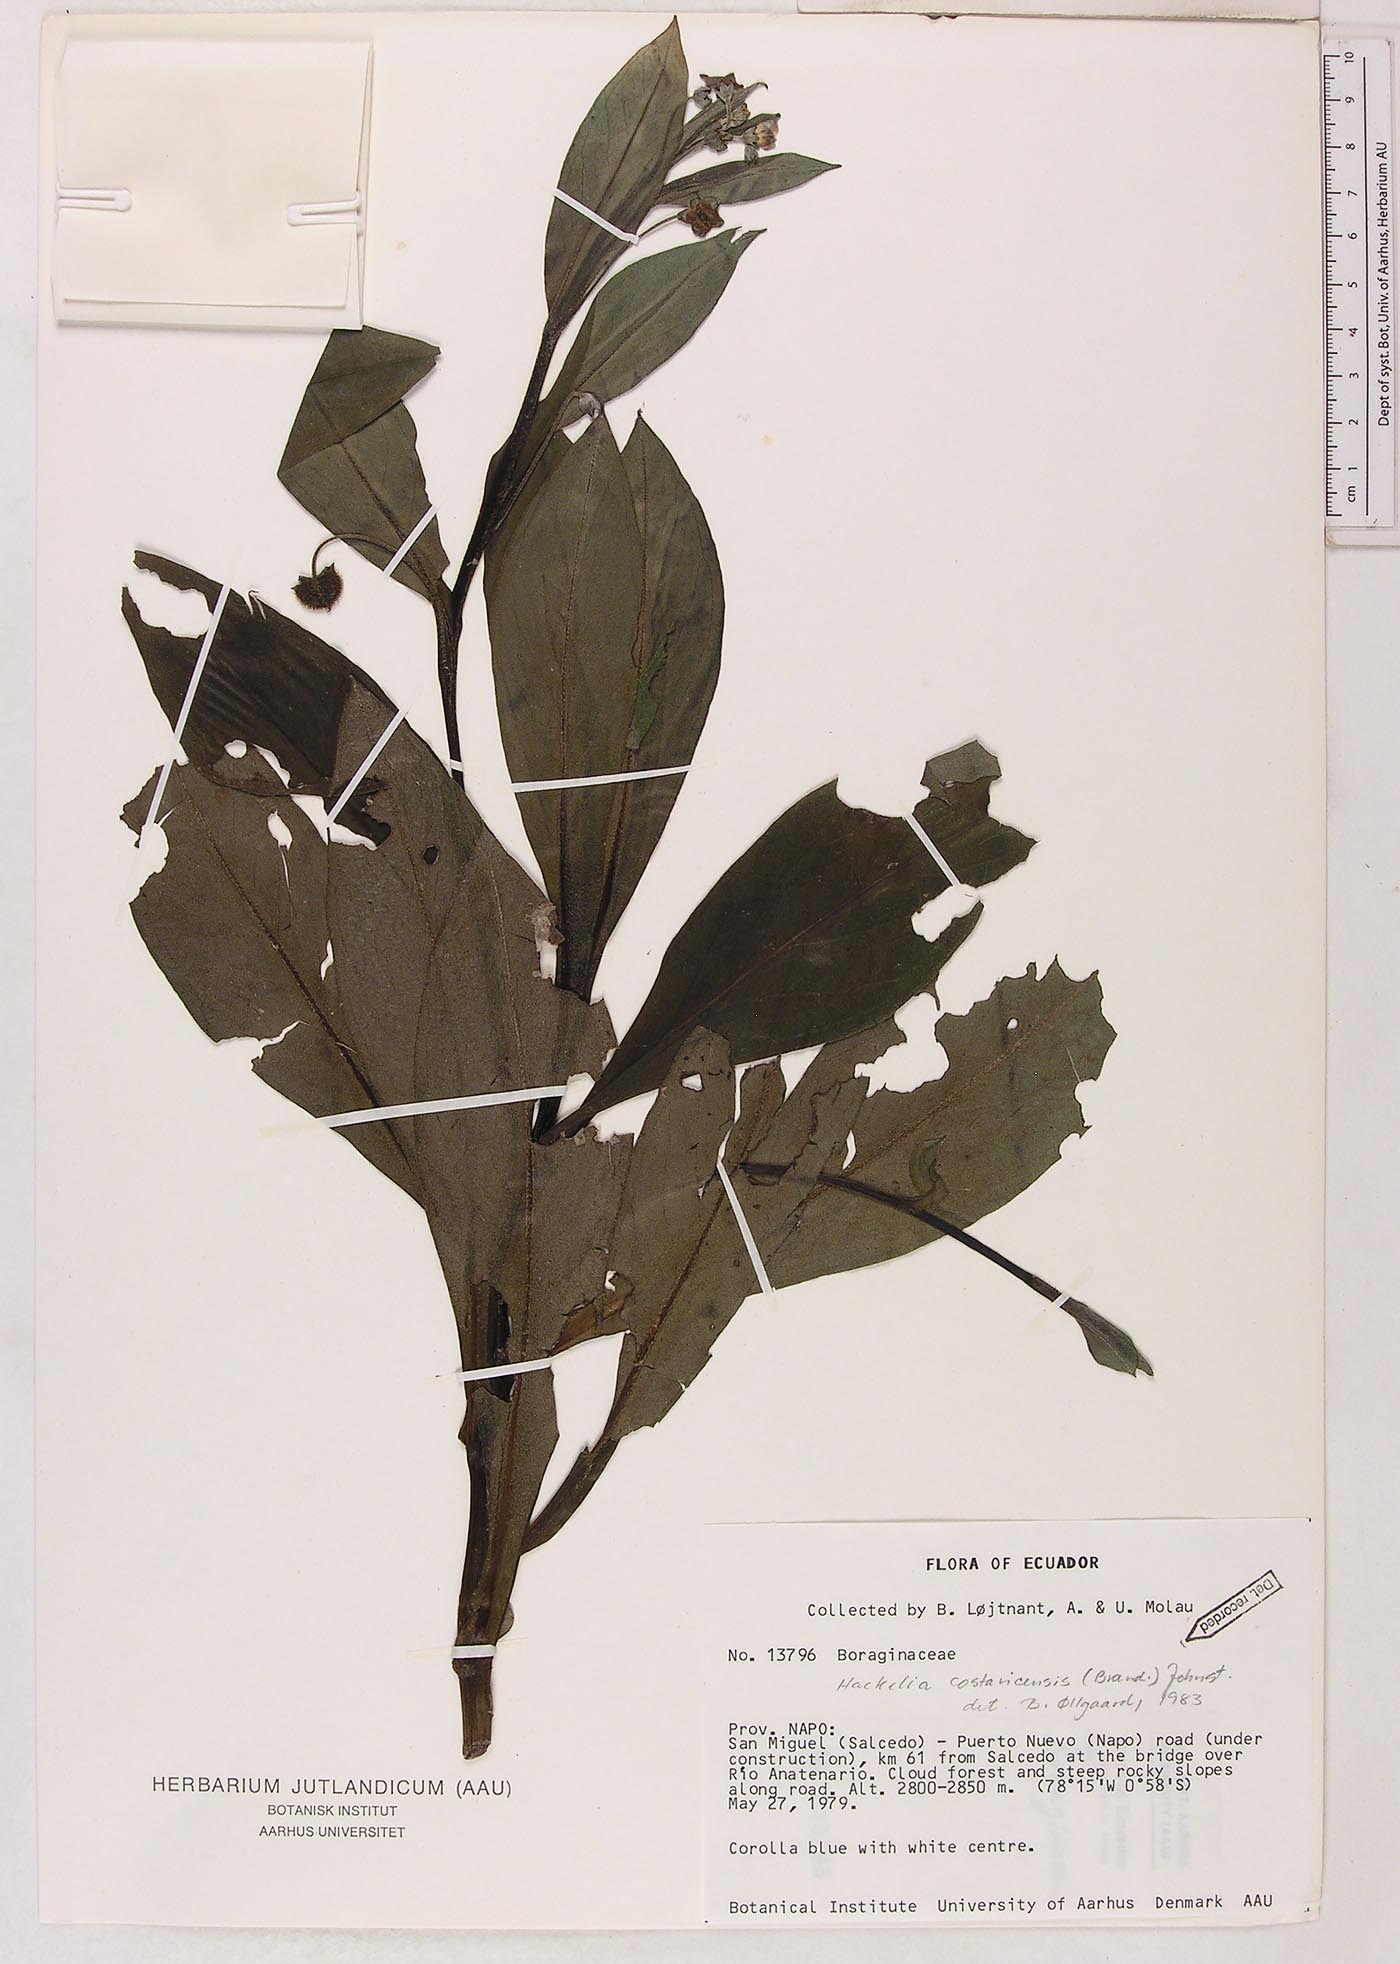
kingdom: Plantae
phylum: Tracheophyta
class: Magnoliopsida
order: Boraginales
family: Boraginaceae
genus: Selkirkia
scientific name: Selkirkia trianaeum
